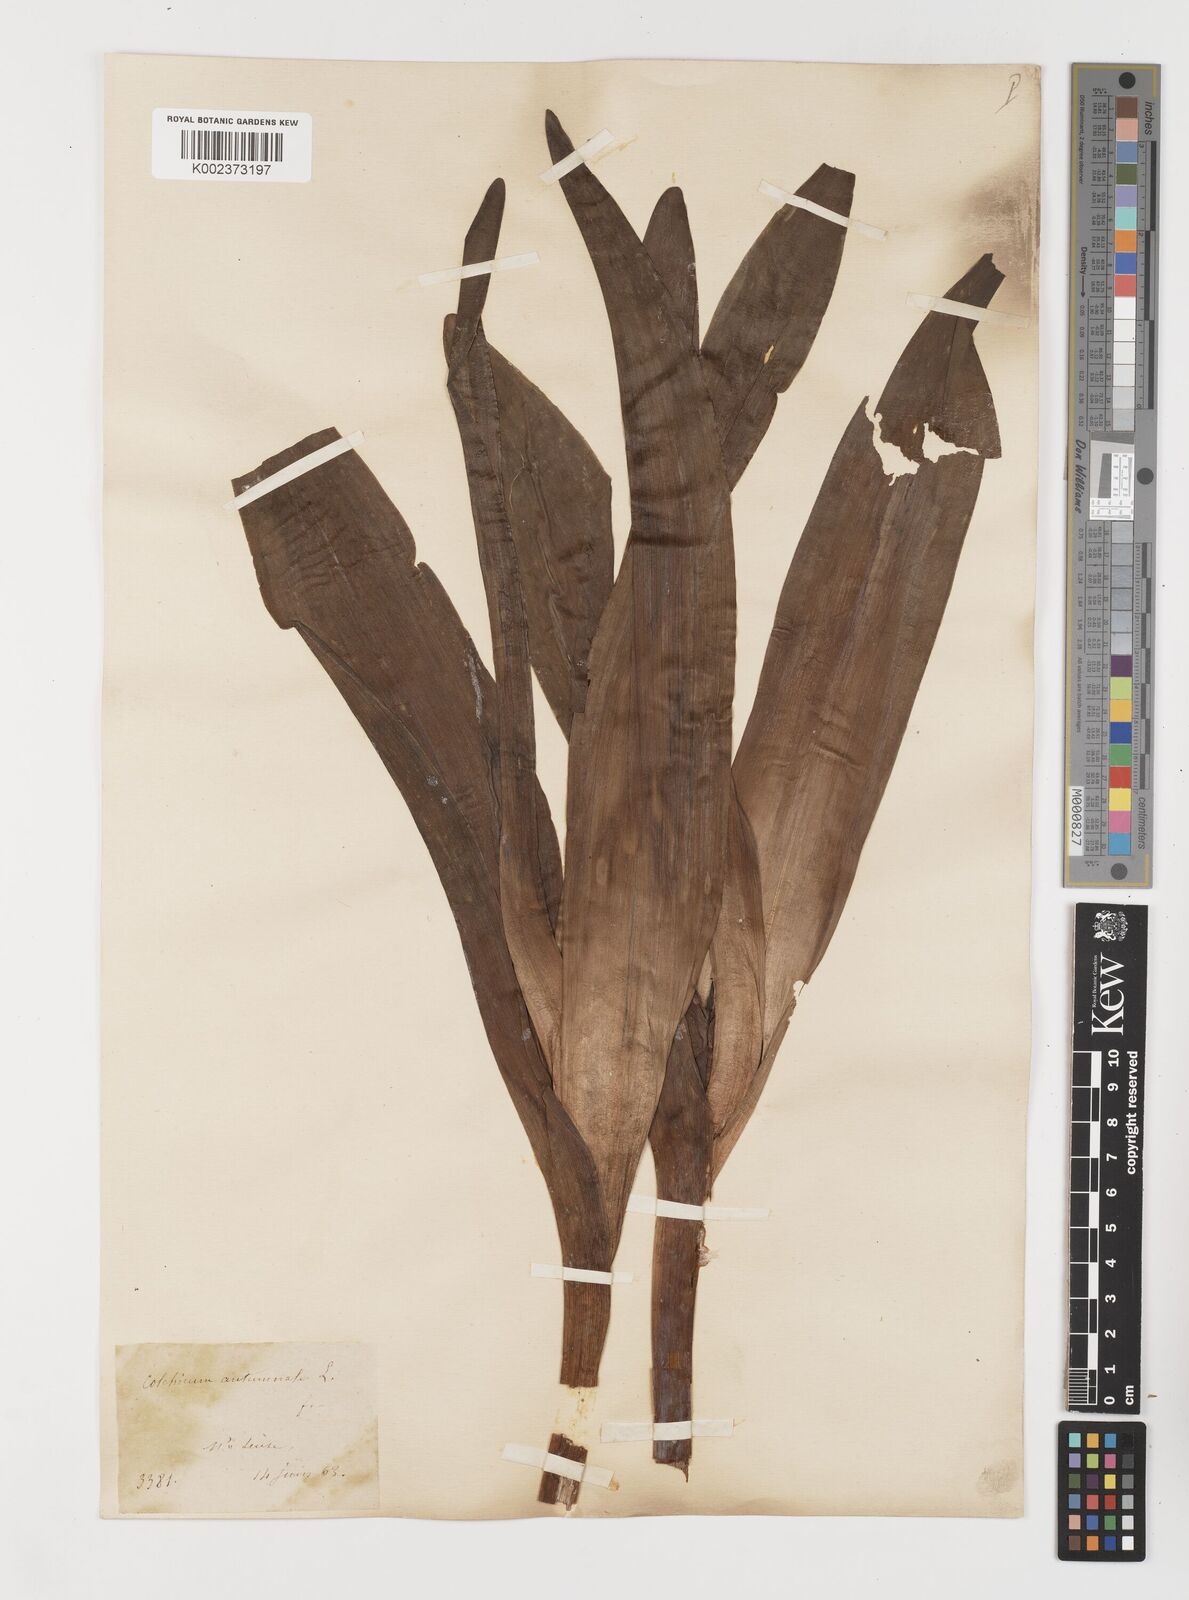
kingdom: Plantae
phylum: Tracheophyta
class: Liliopsida
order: Liliales
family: Colchicaceae
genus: Colchicum
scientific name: Colchicum autumnale
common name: Autumn crocus
